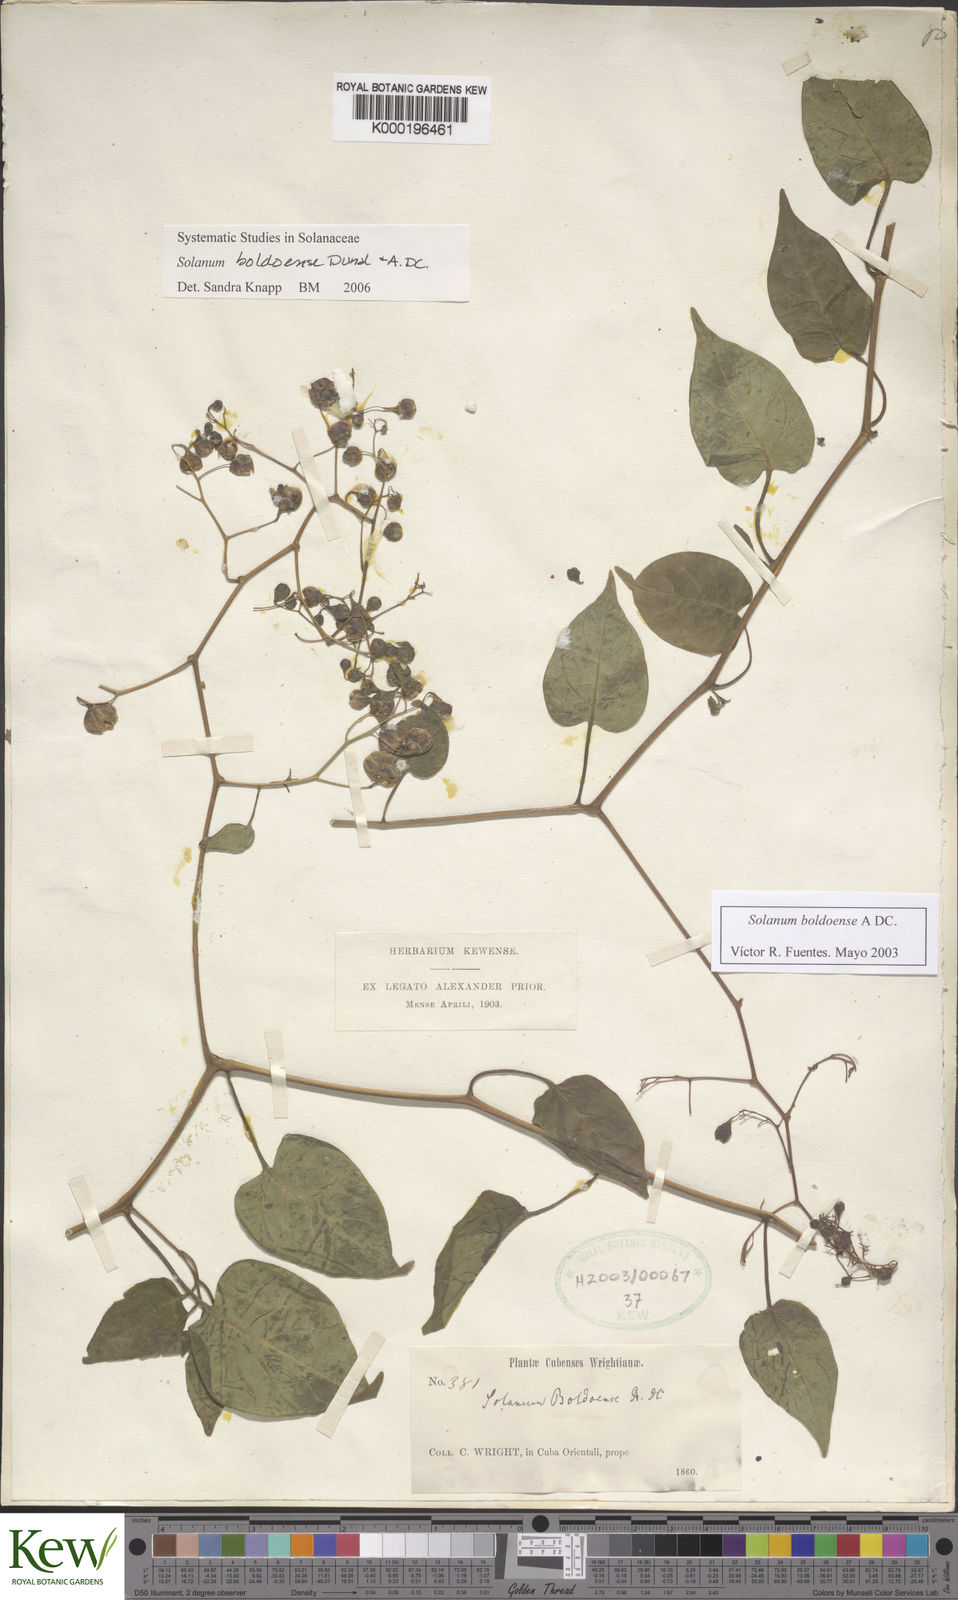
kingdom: Plantae
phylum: Tracheophyta
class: Magnoliopsida
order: Solanales
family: Solanaceae
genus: Solanum
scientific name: Solanum boldoense
